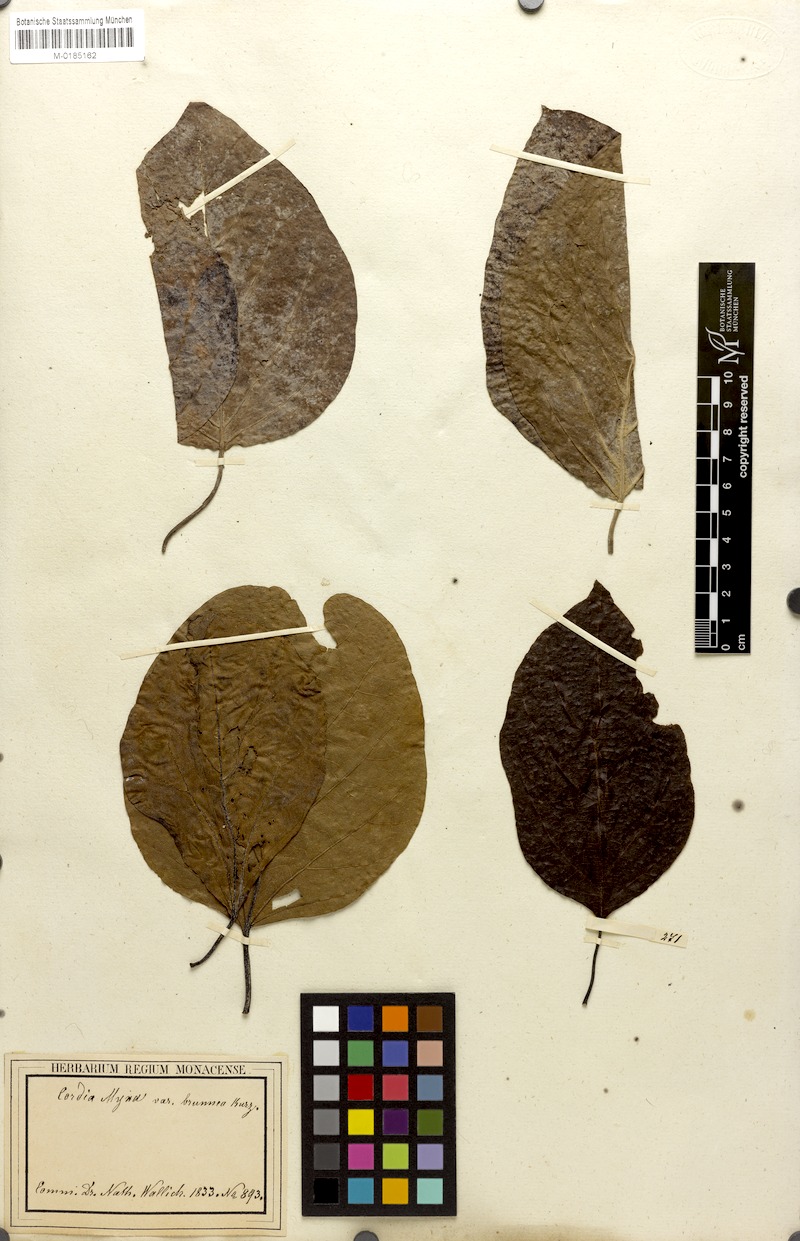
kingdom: Plantae
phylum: Tracheophyta
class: Magnoliopsida
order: Boraginales
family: Cordiaceae
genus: Cordia
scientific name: Cordia myxa
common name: Assyrian plum
